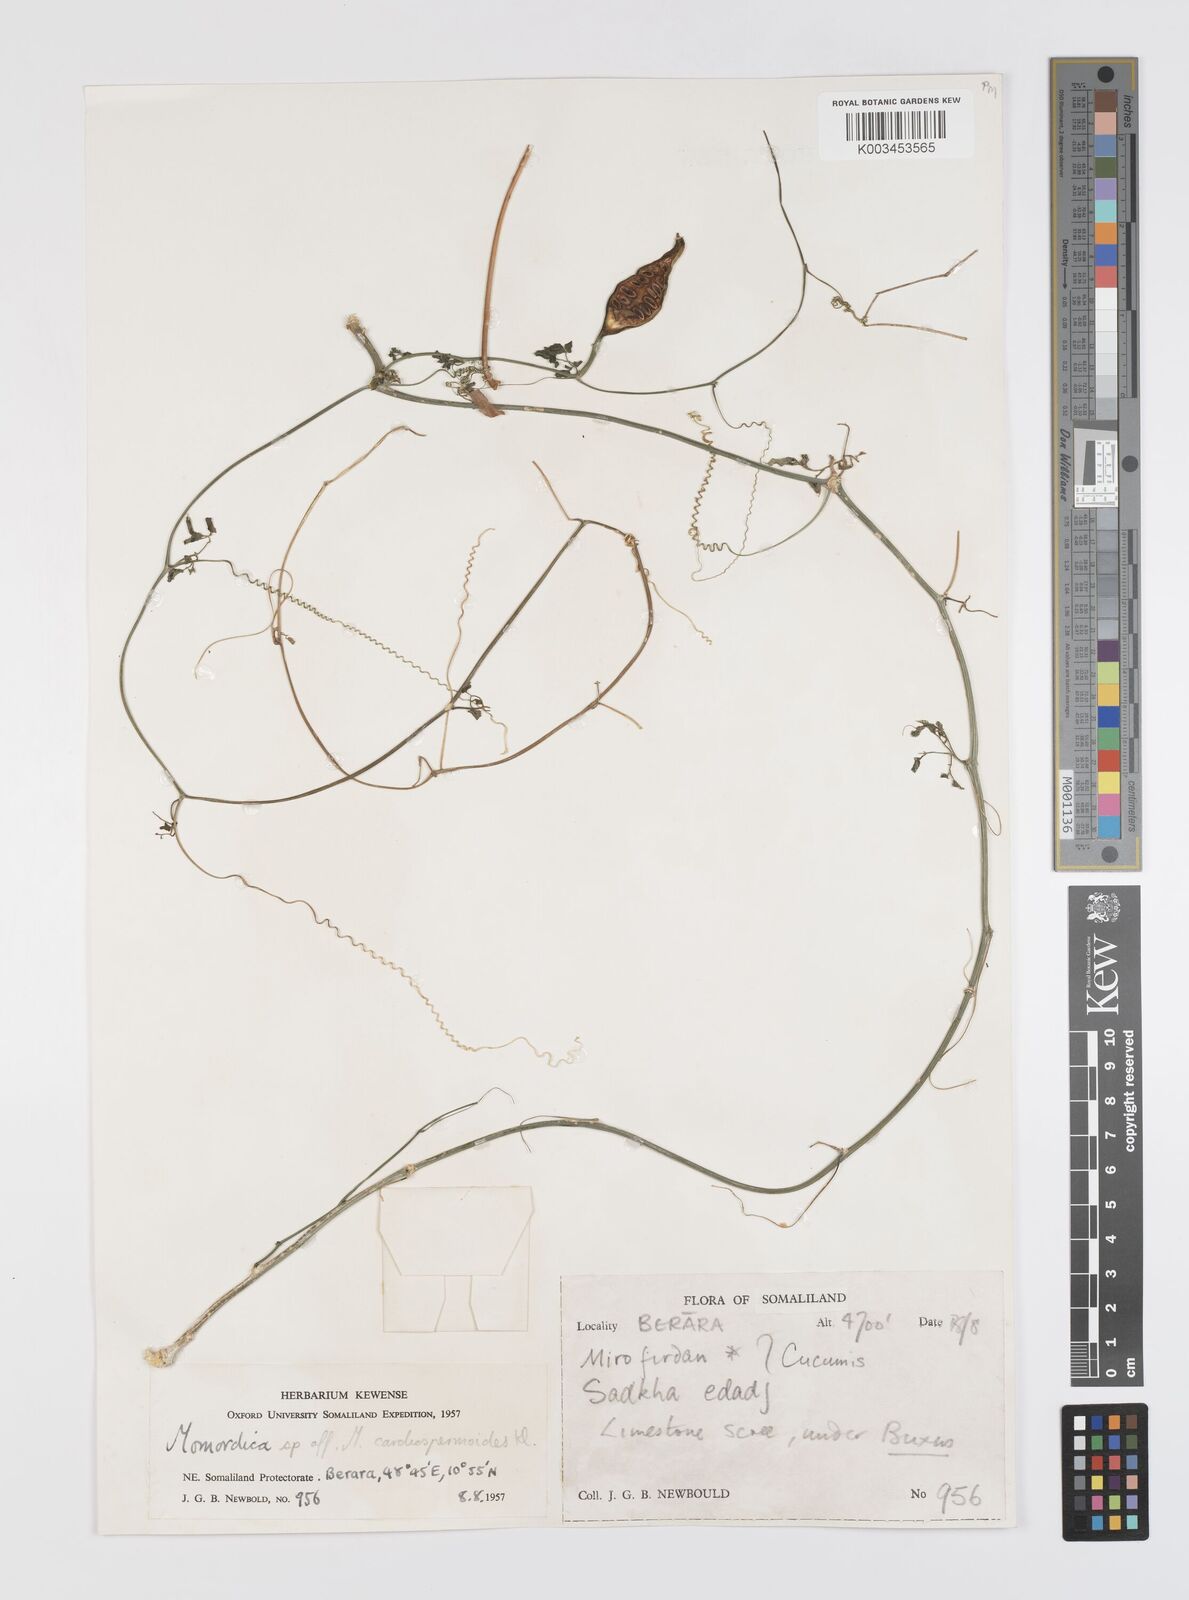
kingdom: Plantae
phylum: Tracheophyta
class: Magnoliopsida
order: Cucurbitales
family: Cucurbitaceae
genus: Momordica
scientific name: Momordica trifoliolata
